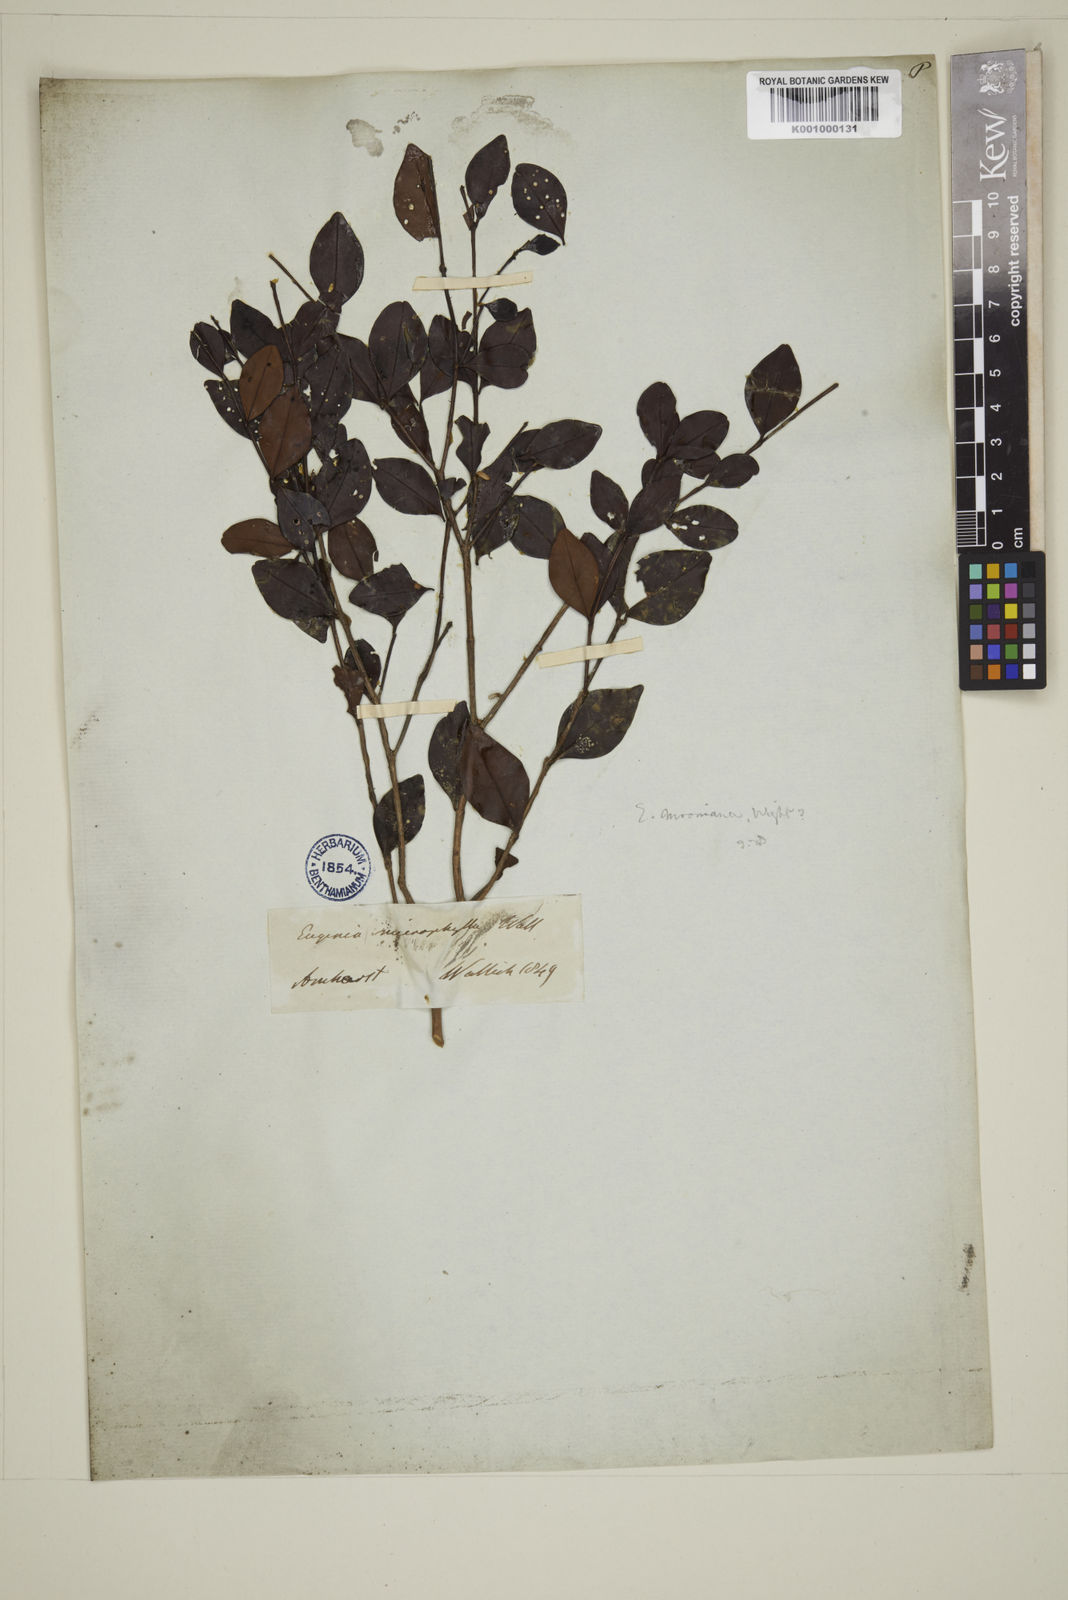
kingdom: Plantae
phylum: Tracheophyta
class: Magnoliopsida
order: Myrtales
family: Myrtaceae
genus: Eugenia
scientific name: Eugenia
